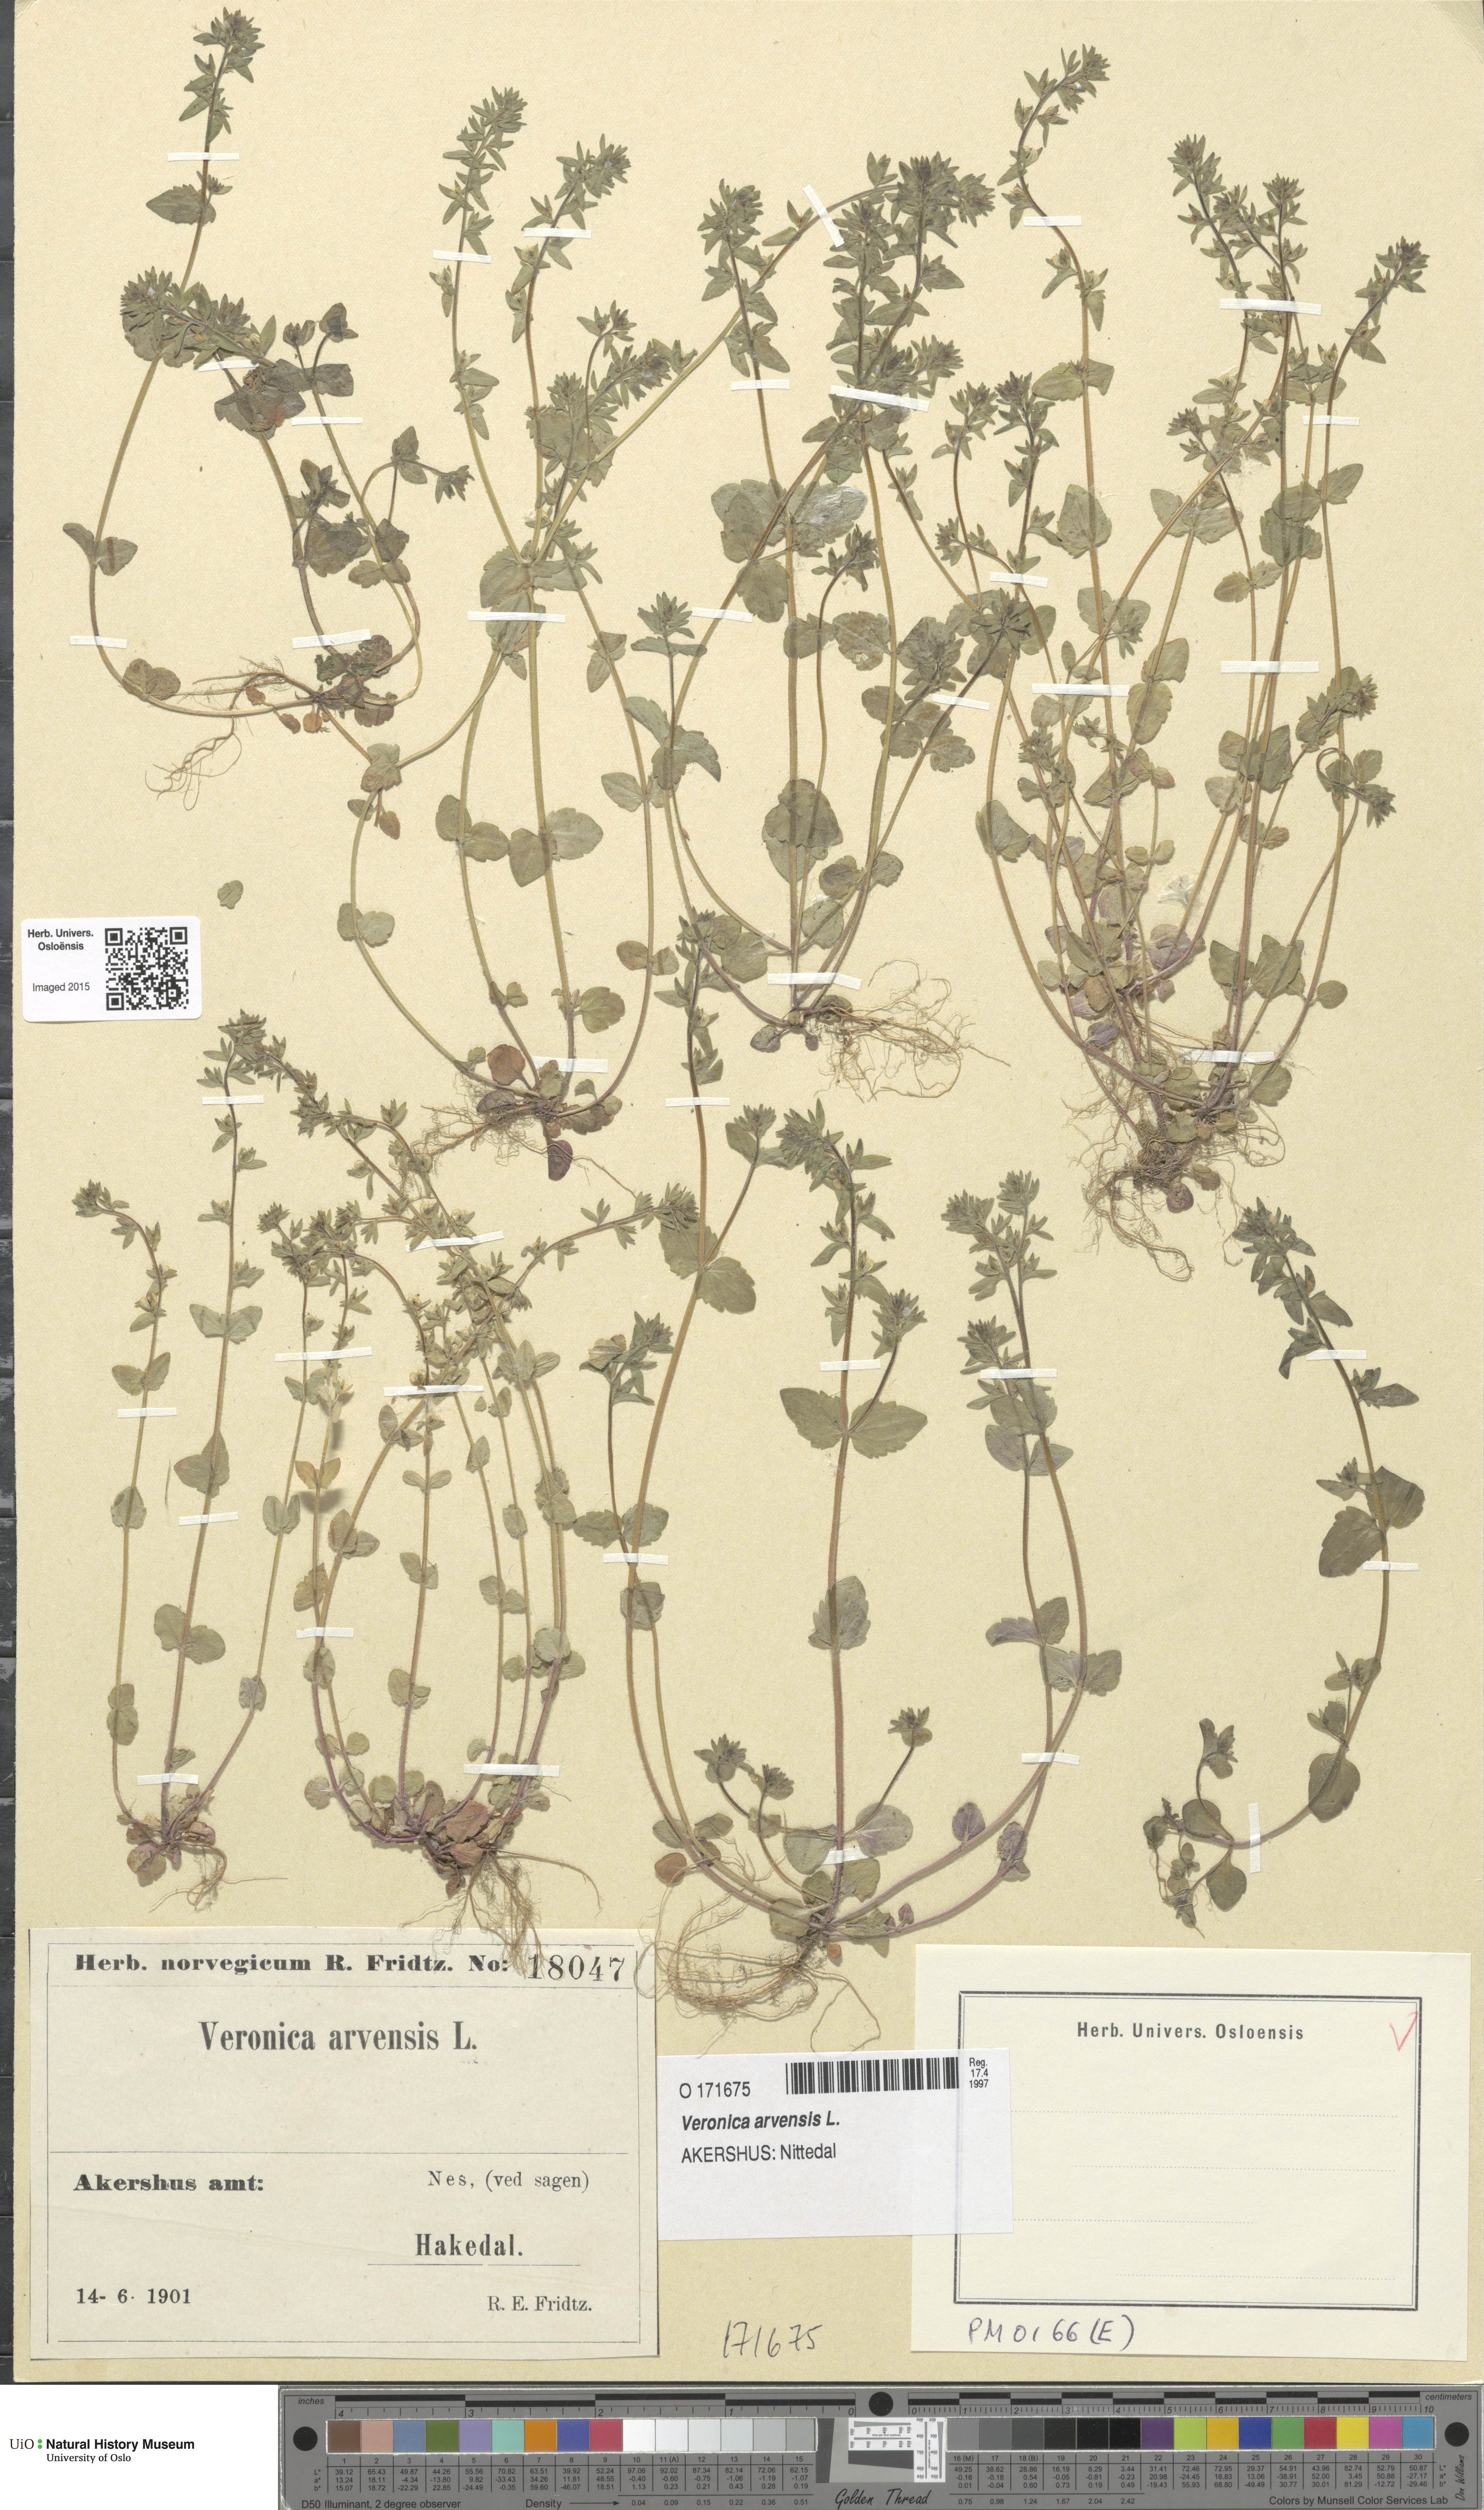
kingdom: Plantae
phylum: Tracheophyta
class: Magnoliopsida
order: Lamiales
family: Plantaginaceae
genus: Veronica
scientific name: Veronica arvensis
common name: Corn speedwell
